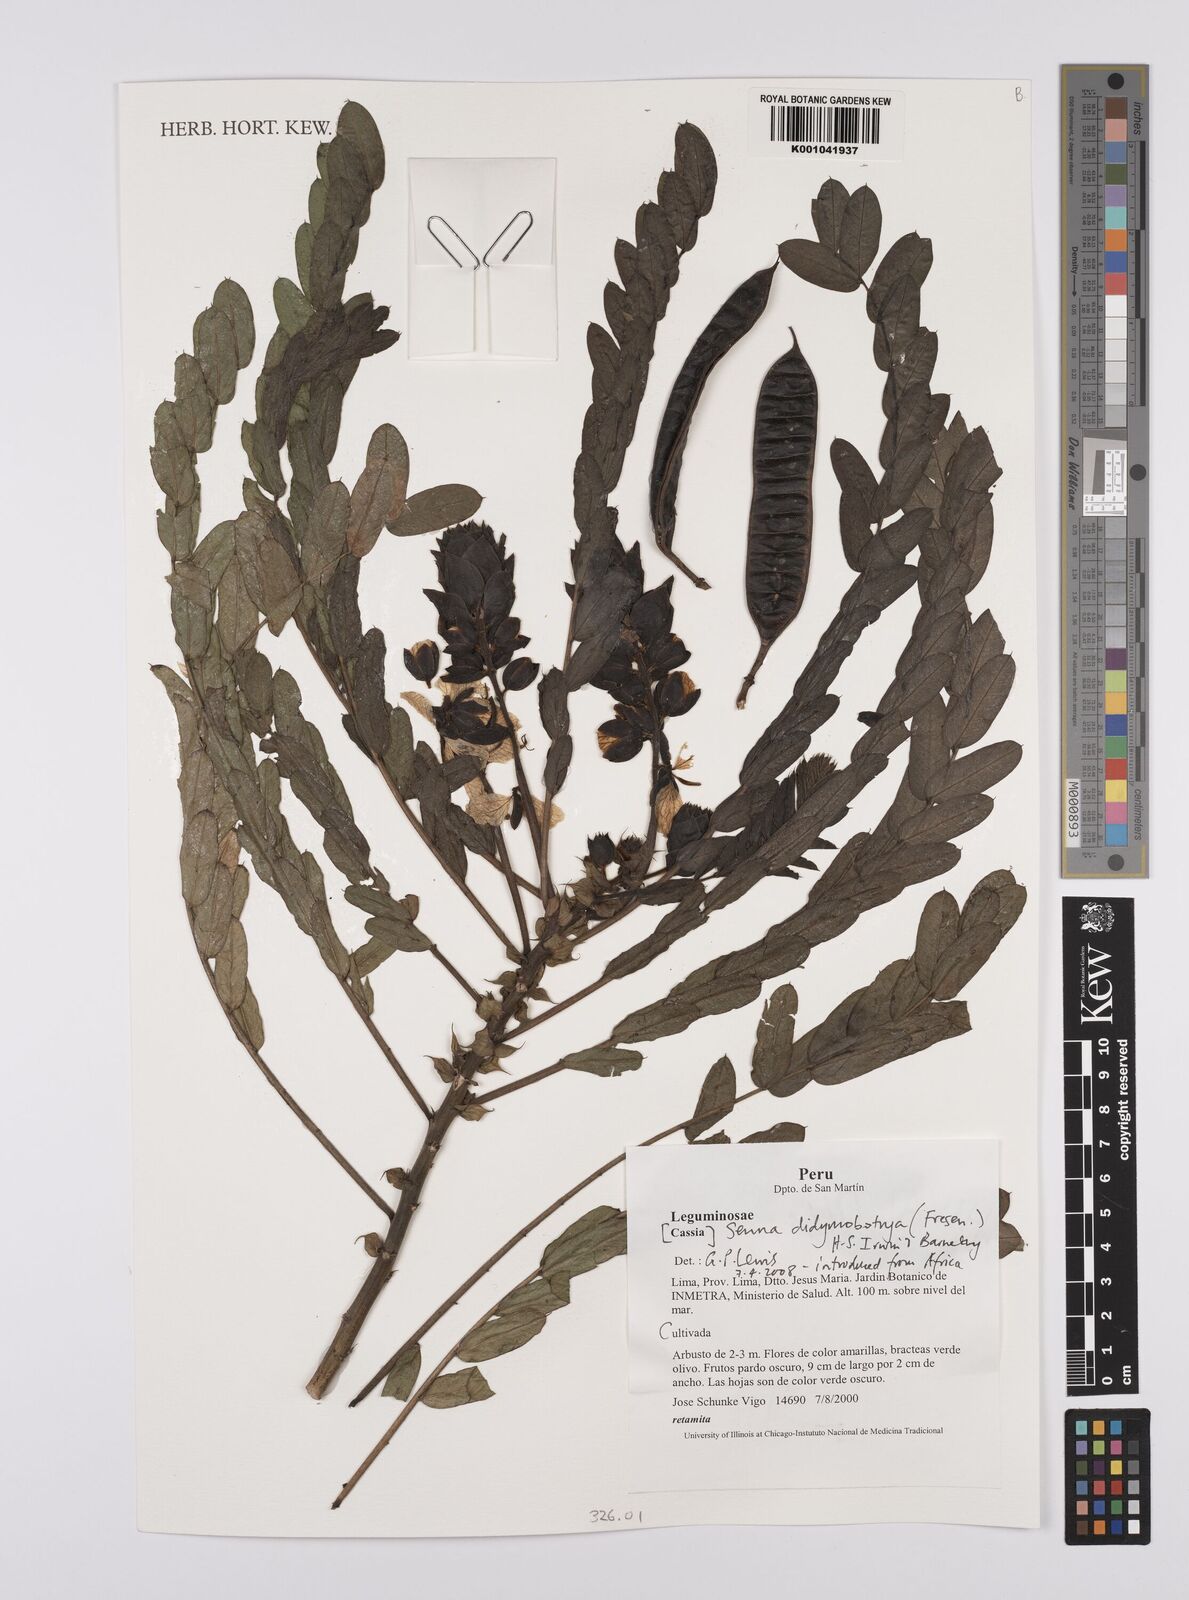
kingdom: Plantae
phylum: Tracheophyta
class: Magnoliopsida
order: Fabales
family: Fabaceae
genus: Senna
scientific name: Senna didymobotrya
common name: African senna
